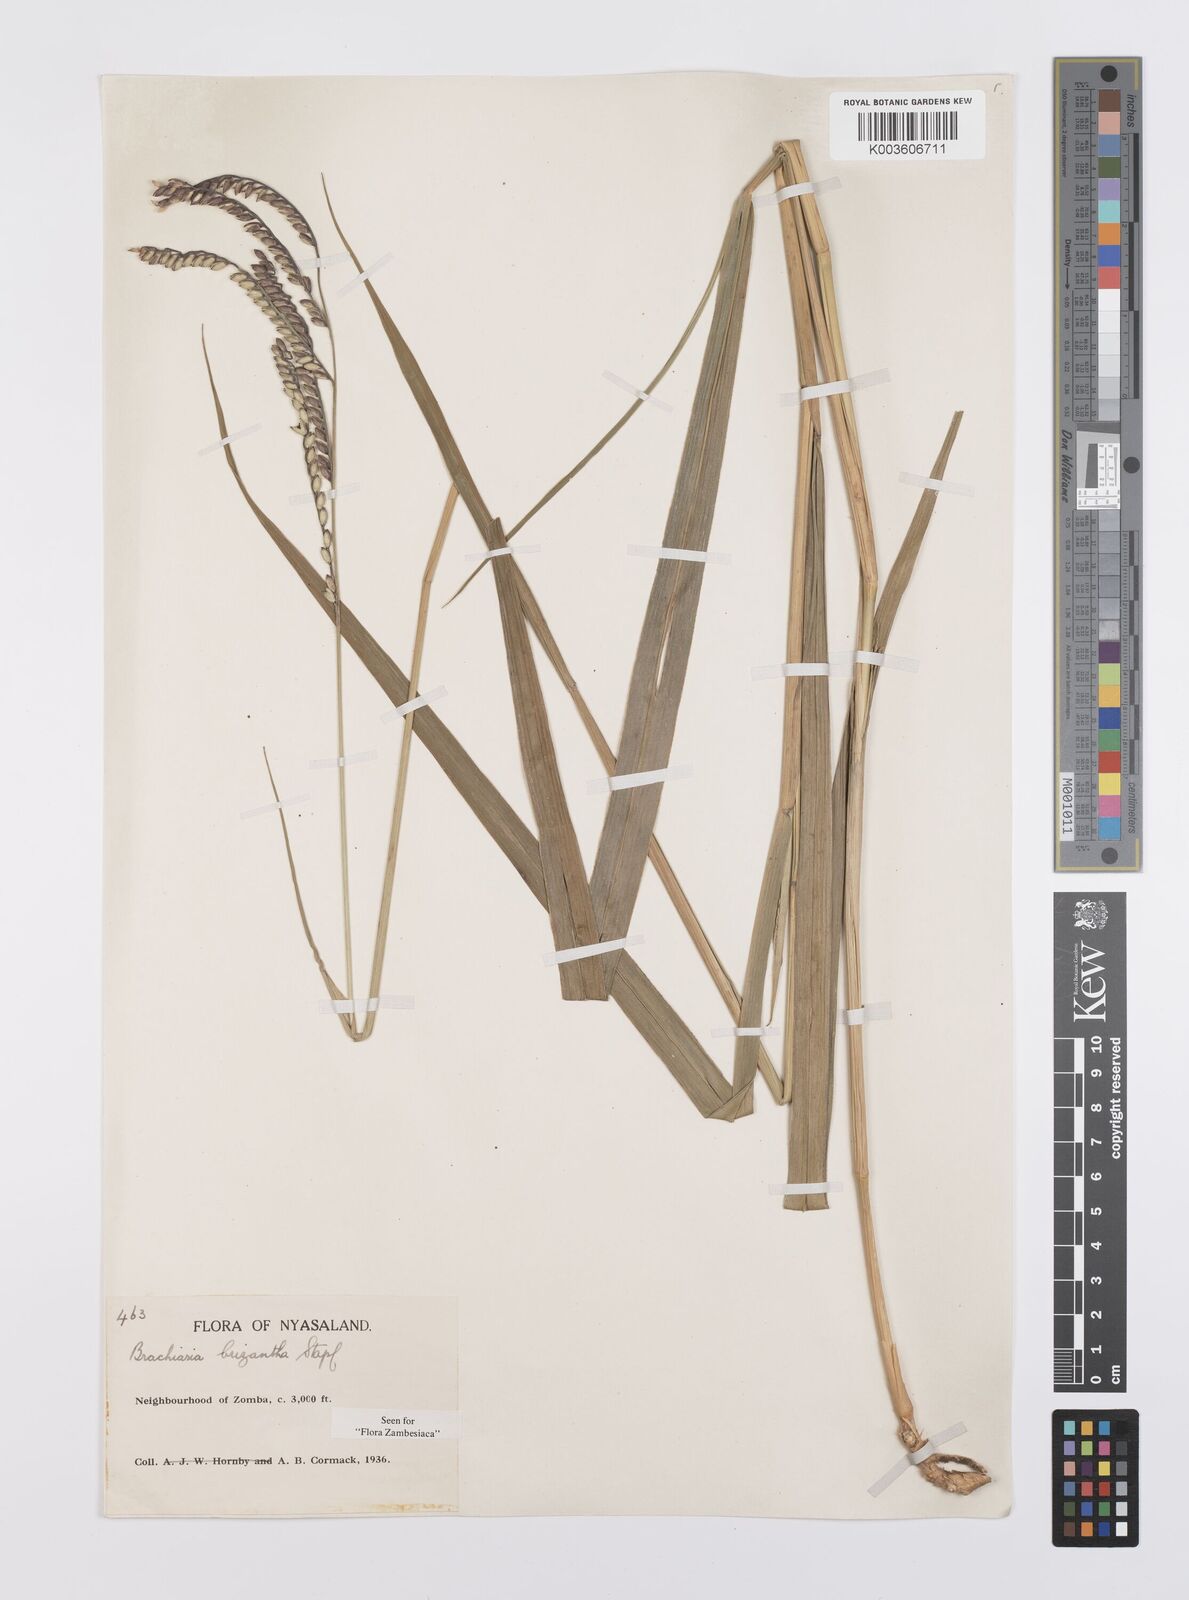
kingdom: Plantae
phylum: Tracheophyta
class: Liliopsida
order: Poales
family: Poaceae
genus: Urochloa
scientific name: Urochloa brizantha
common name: Palisade signalgrass
